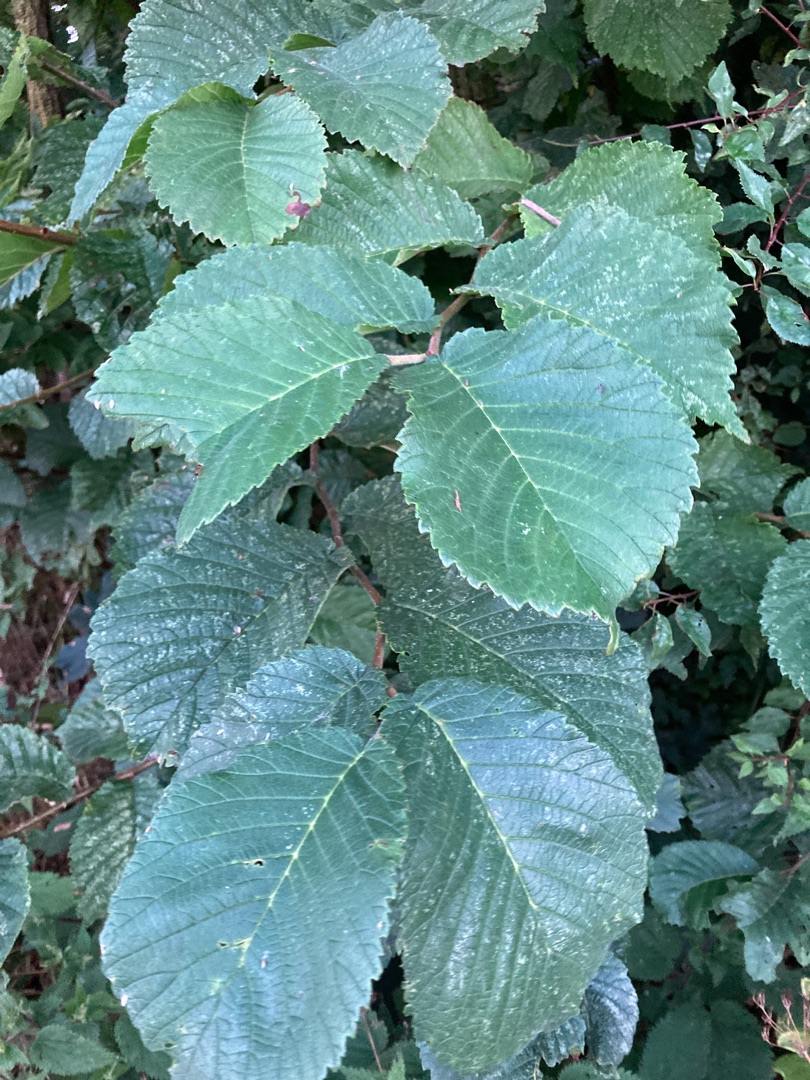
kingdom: Plantae
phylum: Tracheophyta
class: Magnoliopsida
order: Rosales
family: Ulmaceae
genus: Ulmus
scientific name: Ulmus glabra
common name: Skov-elm/storbladet elm
